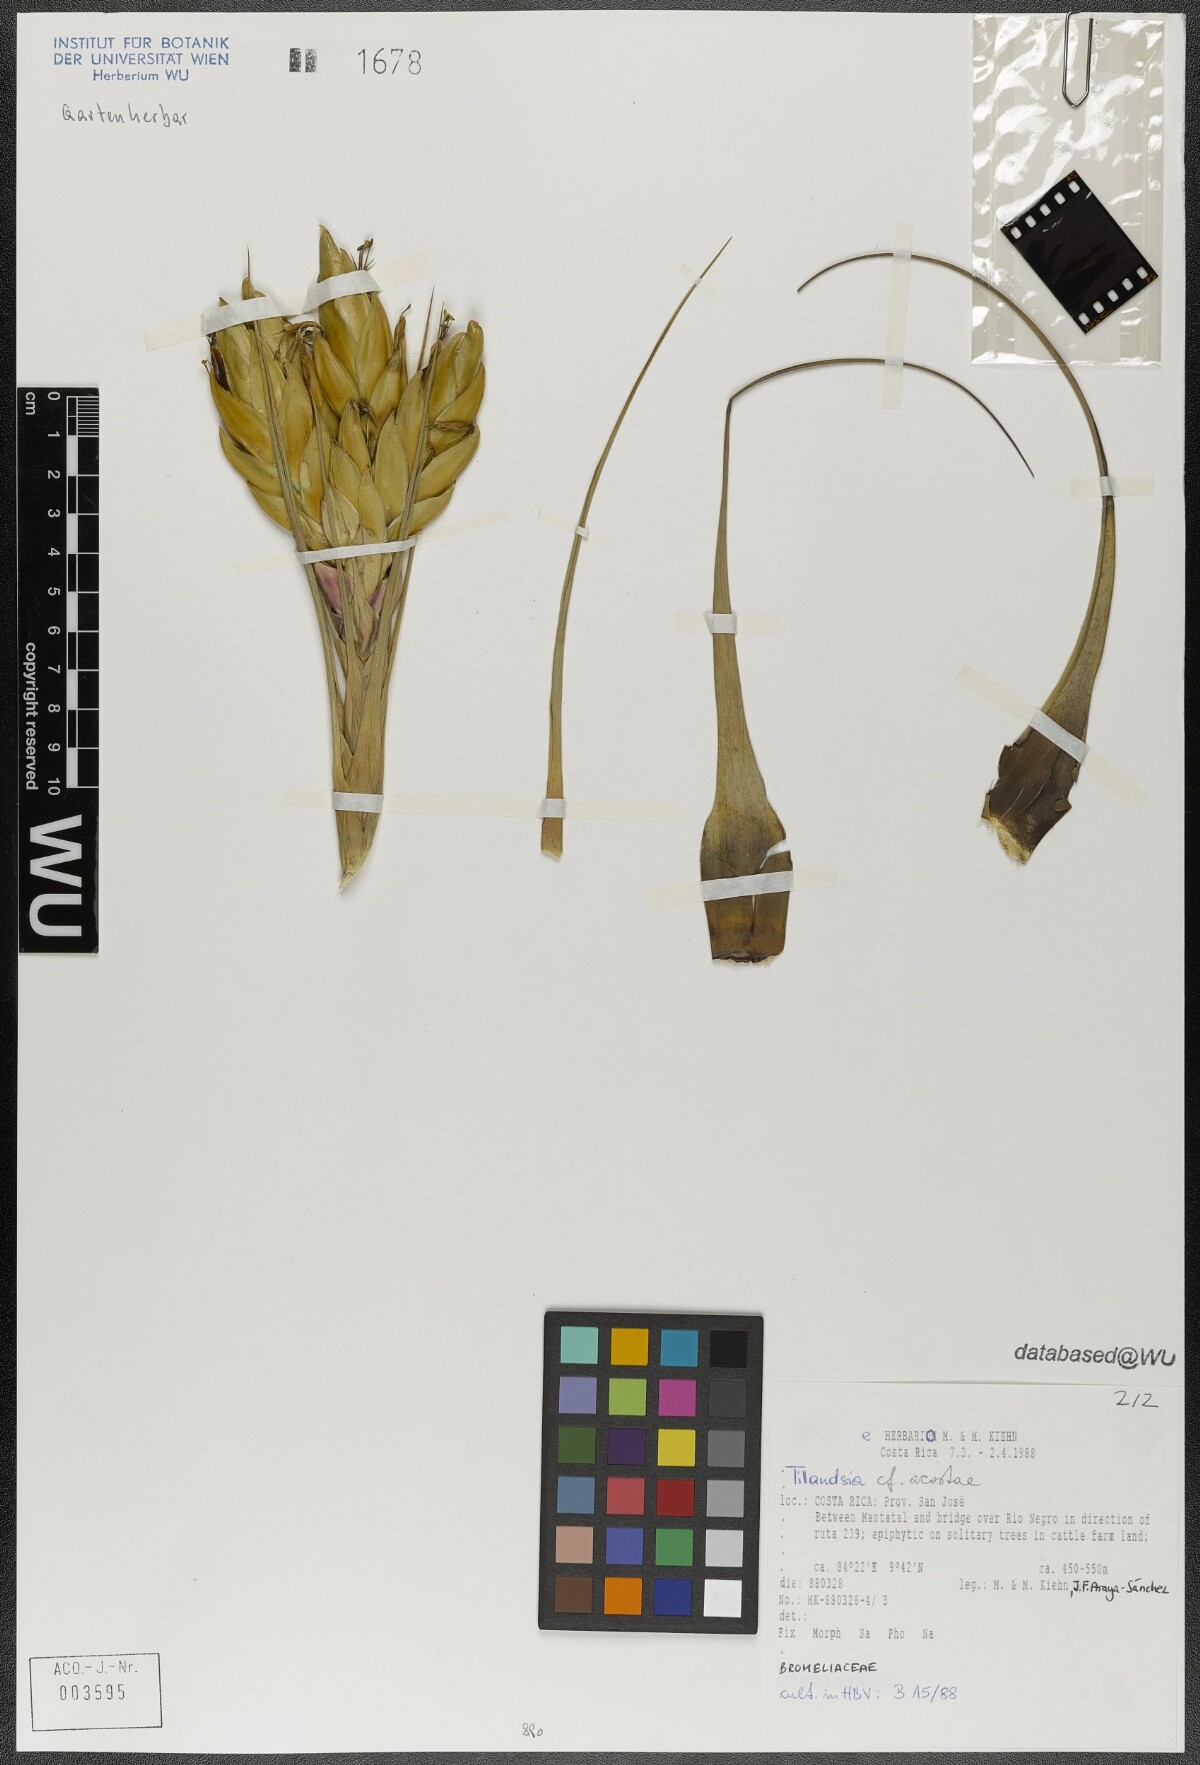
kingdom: Plantae
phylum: Tracheophyta
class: Liliopsida
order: Poales
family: Bromeliaceae
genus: Tillandsia
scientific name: Tillandsia rhomboidea
